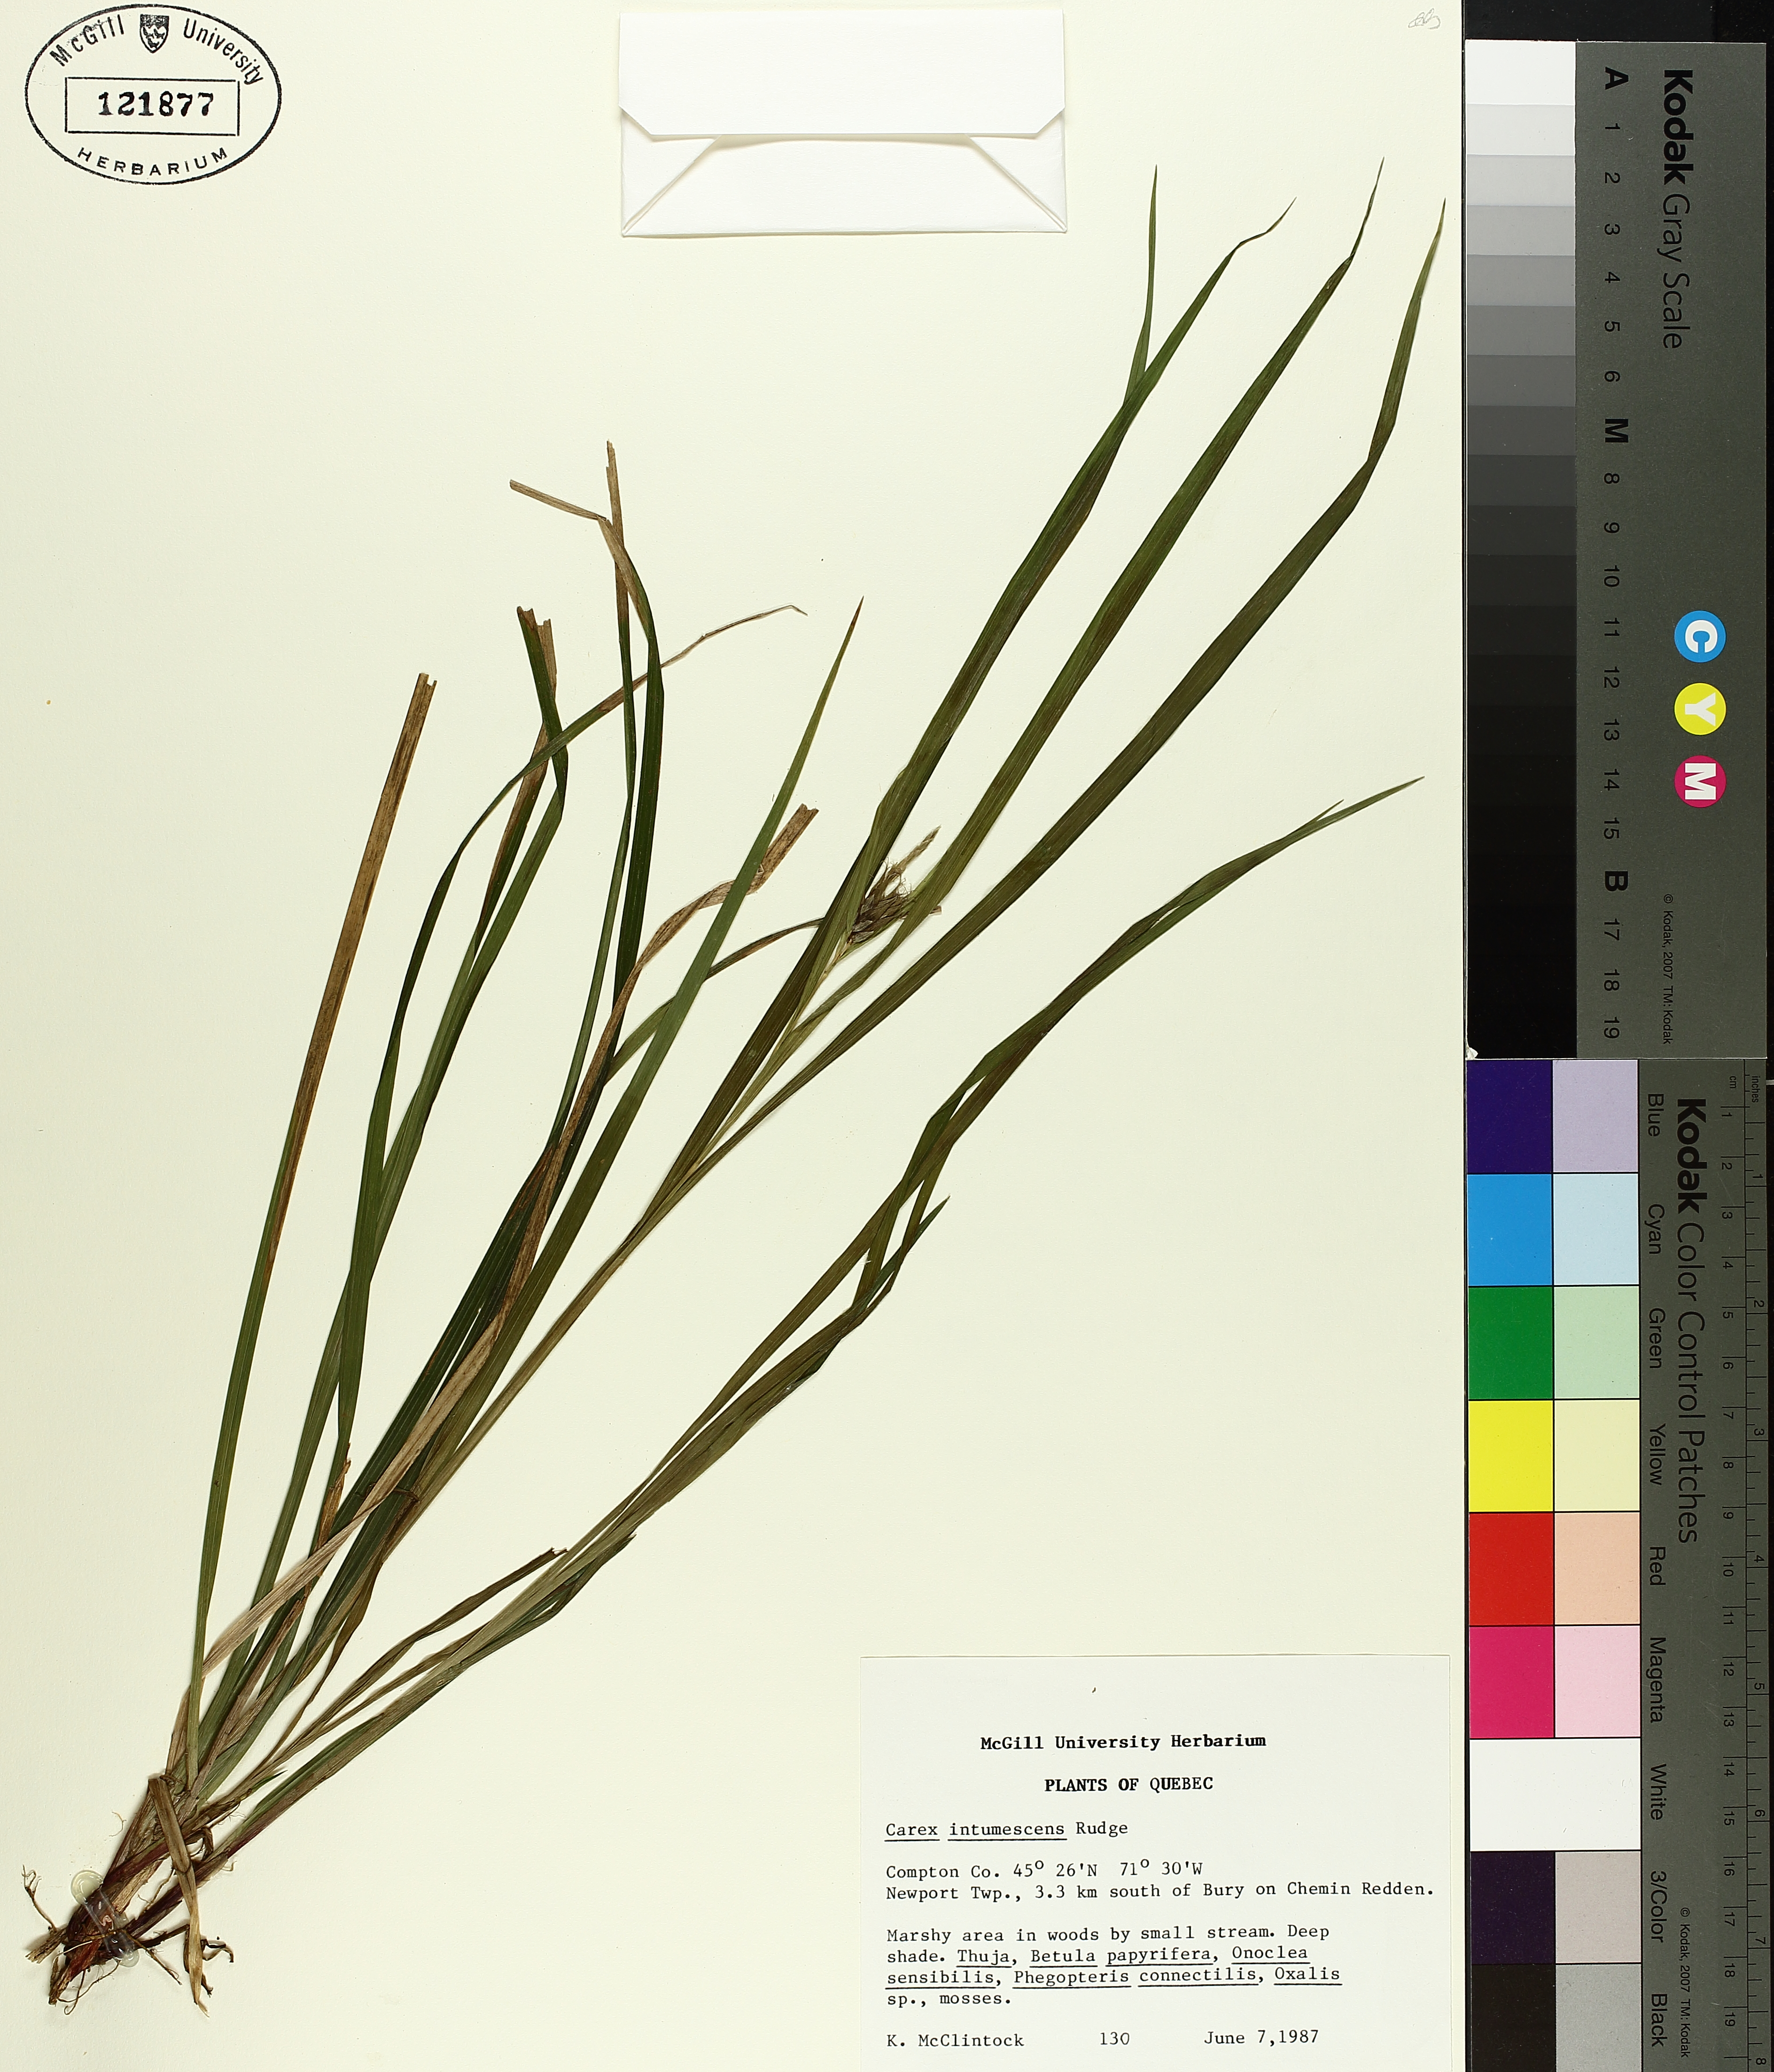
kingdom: Plantae
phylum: Tracheophyta
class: Liliopsida
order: Poales
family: Cyperaceae
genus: Carex
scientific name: Carex intumescens
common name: Greater bladder sedge
